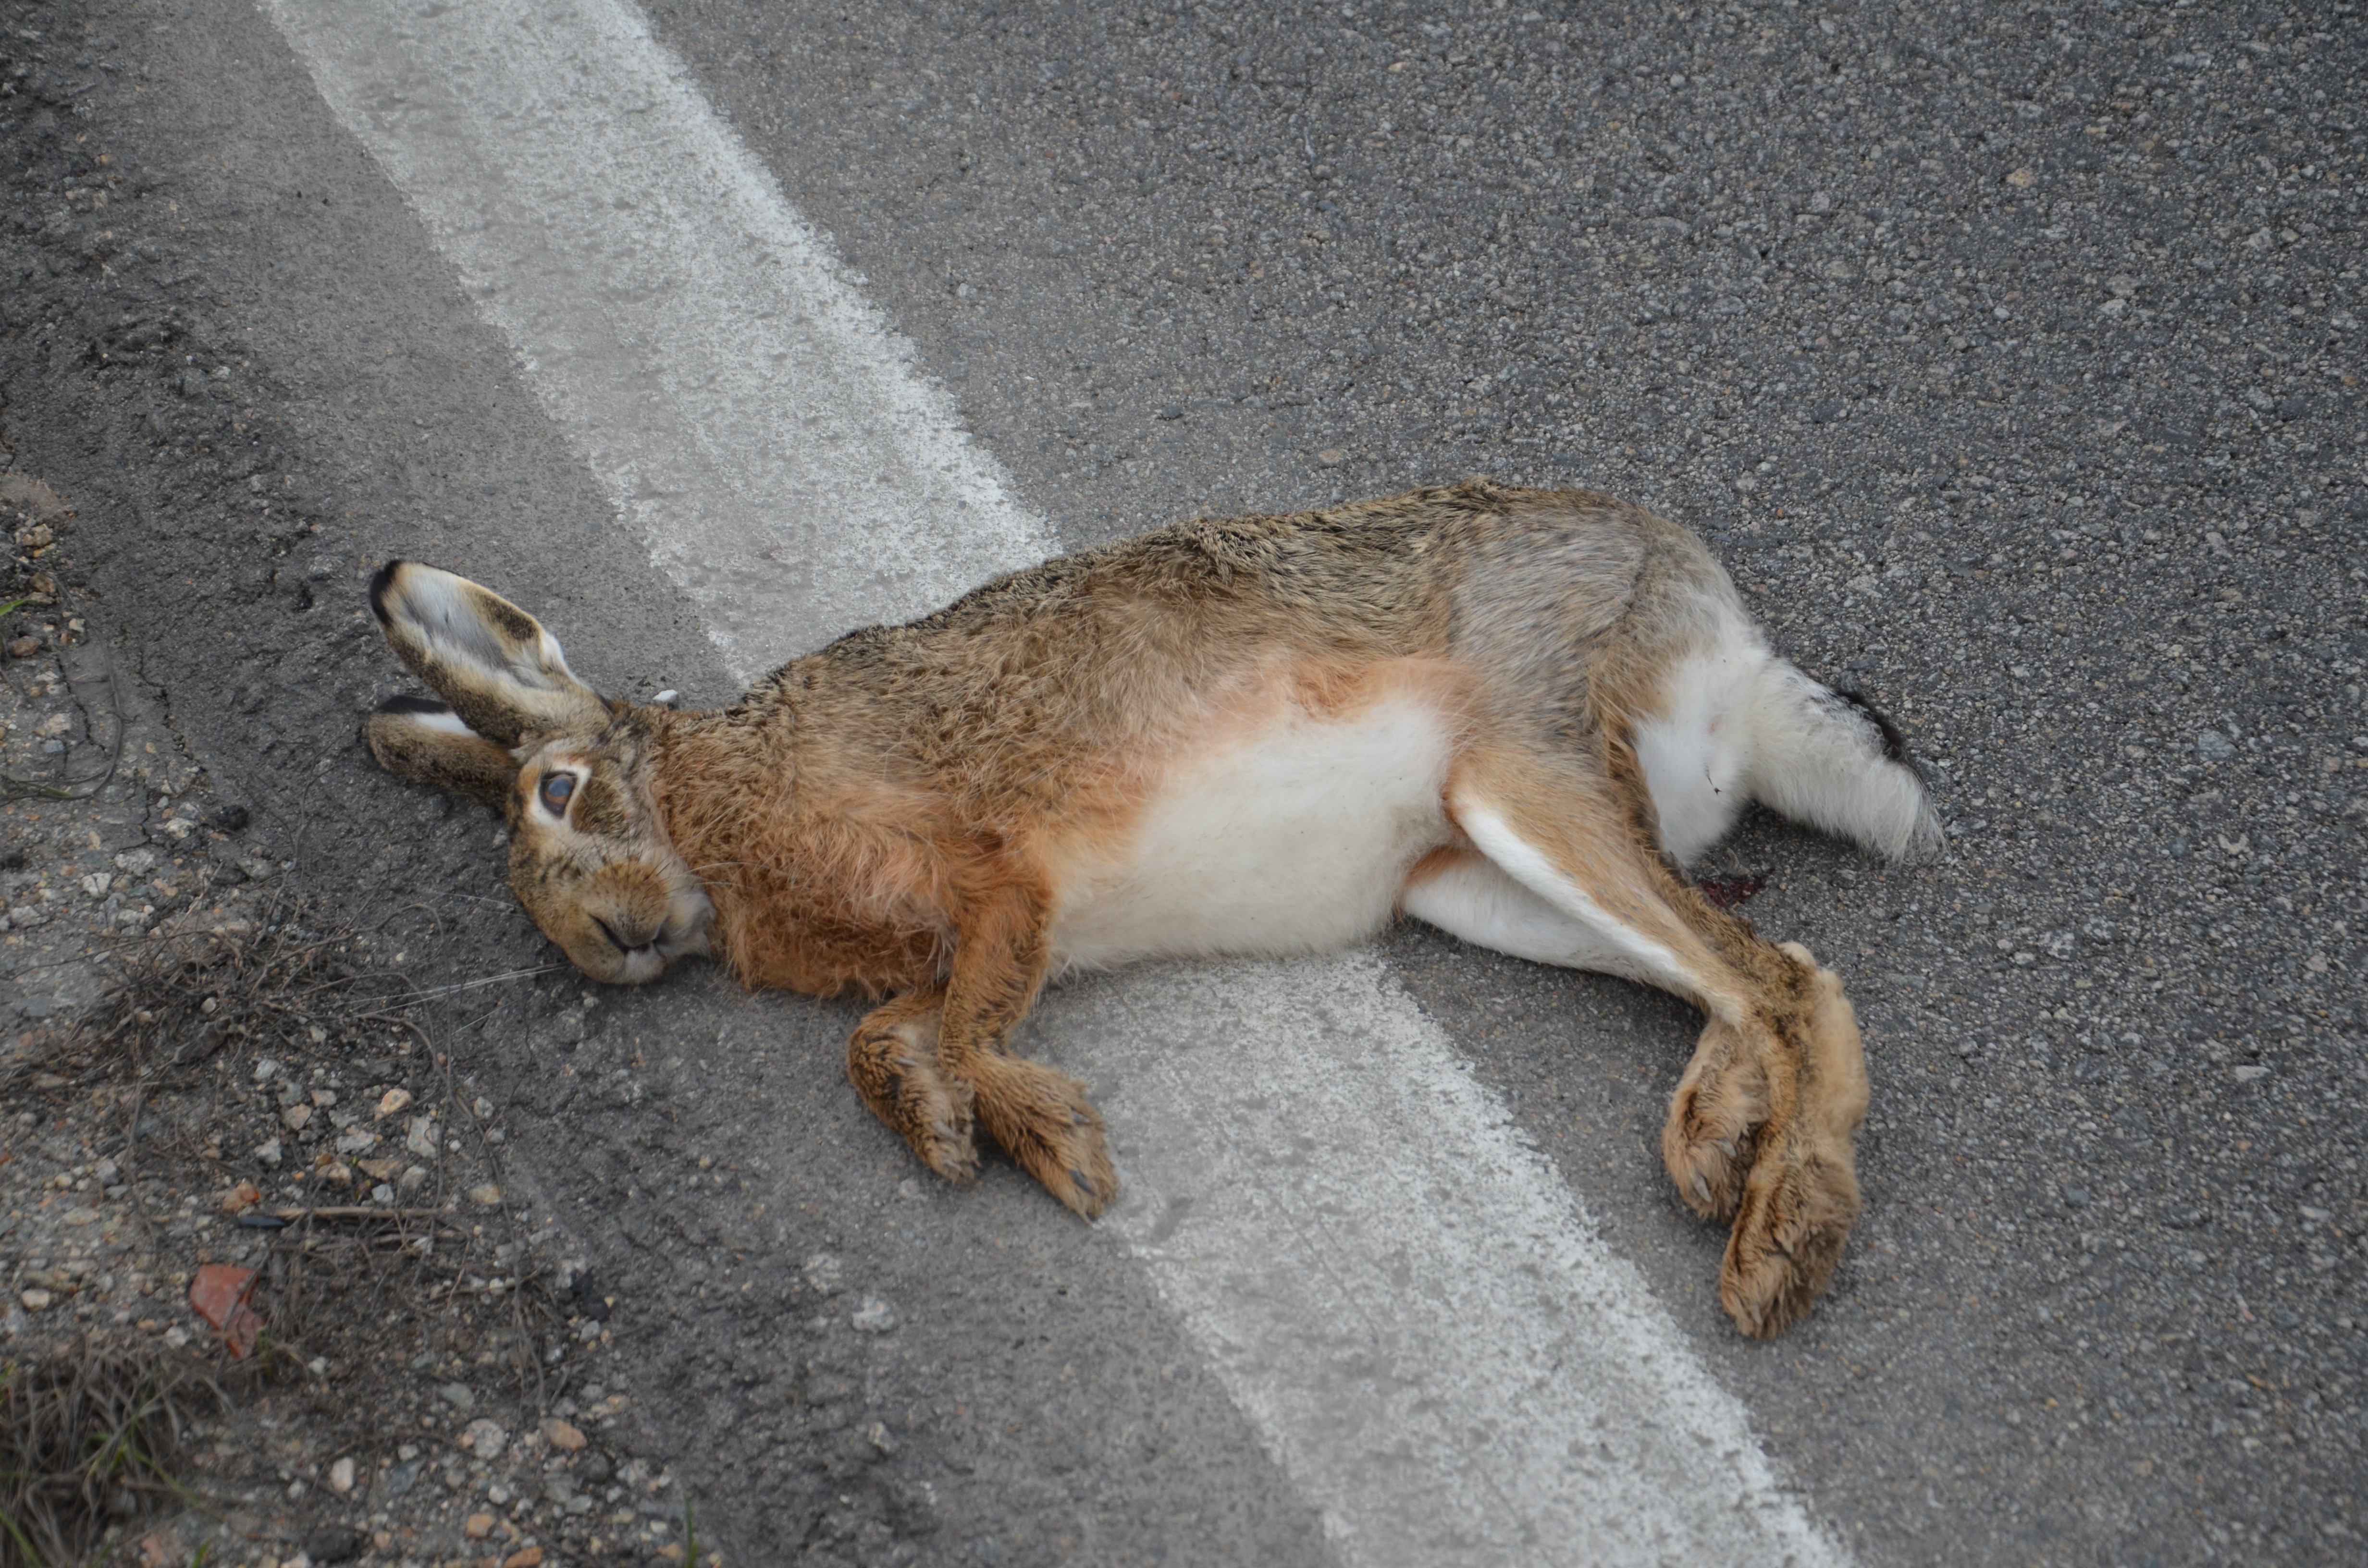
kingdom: Animalia
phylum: Chordata
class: Mammalia
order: Lagomorpha
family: Leporidae
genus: Lepus
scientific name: Lepus europaeus
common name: European hare
